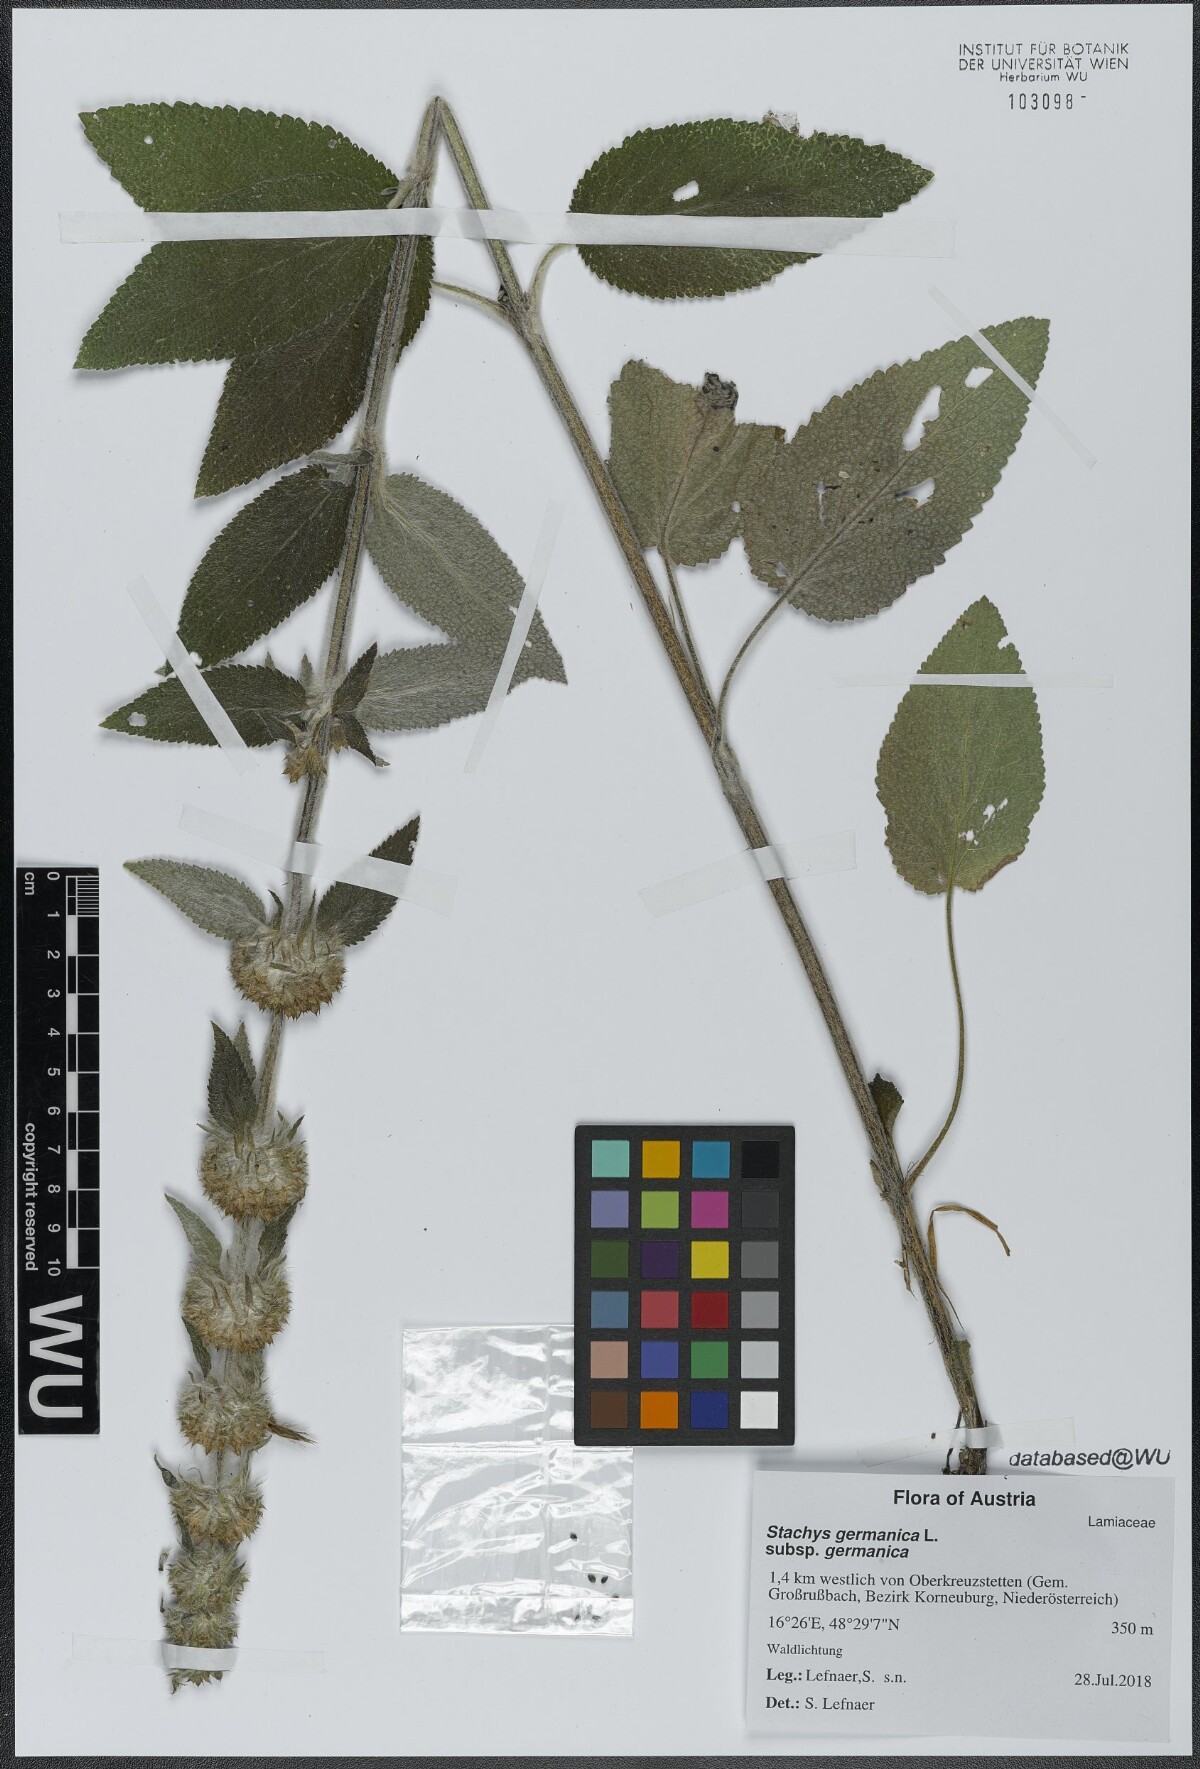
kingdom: Plantae
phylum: Tracheophyta
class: Magnoliopsida
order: Lamiales
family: Lamiaceae
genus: Stachys
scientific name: Stachys germanica
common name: Downy woundwort
